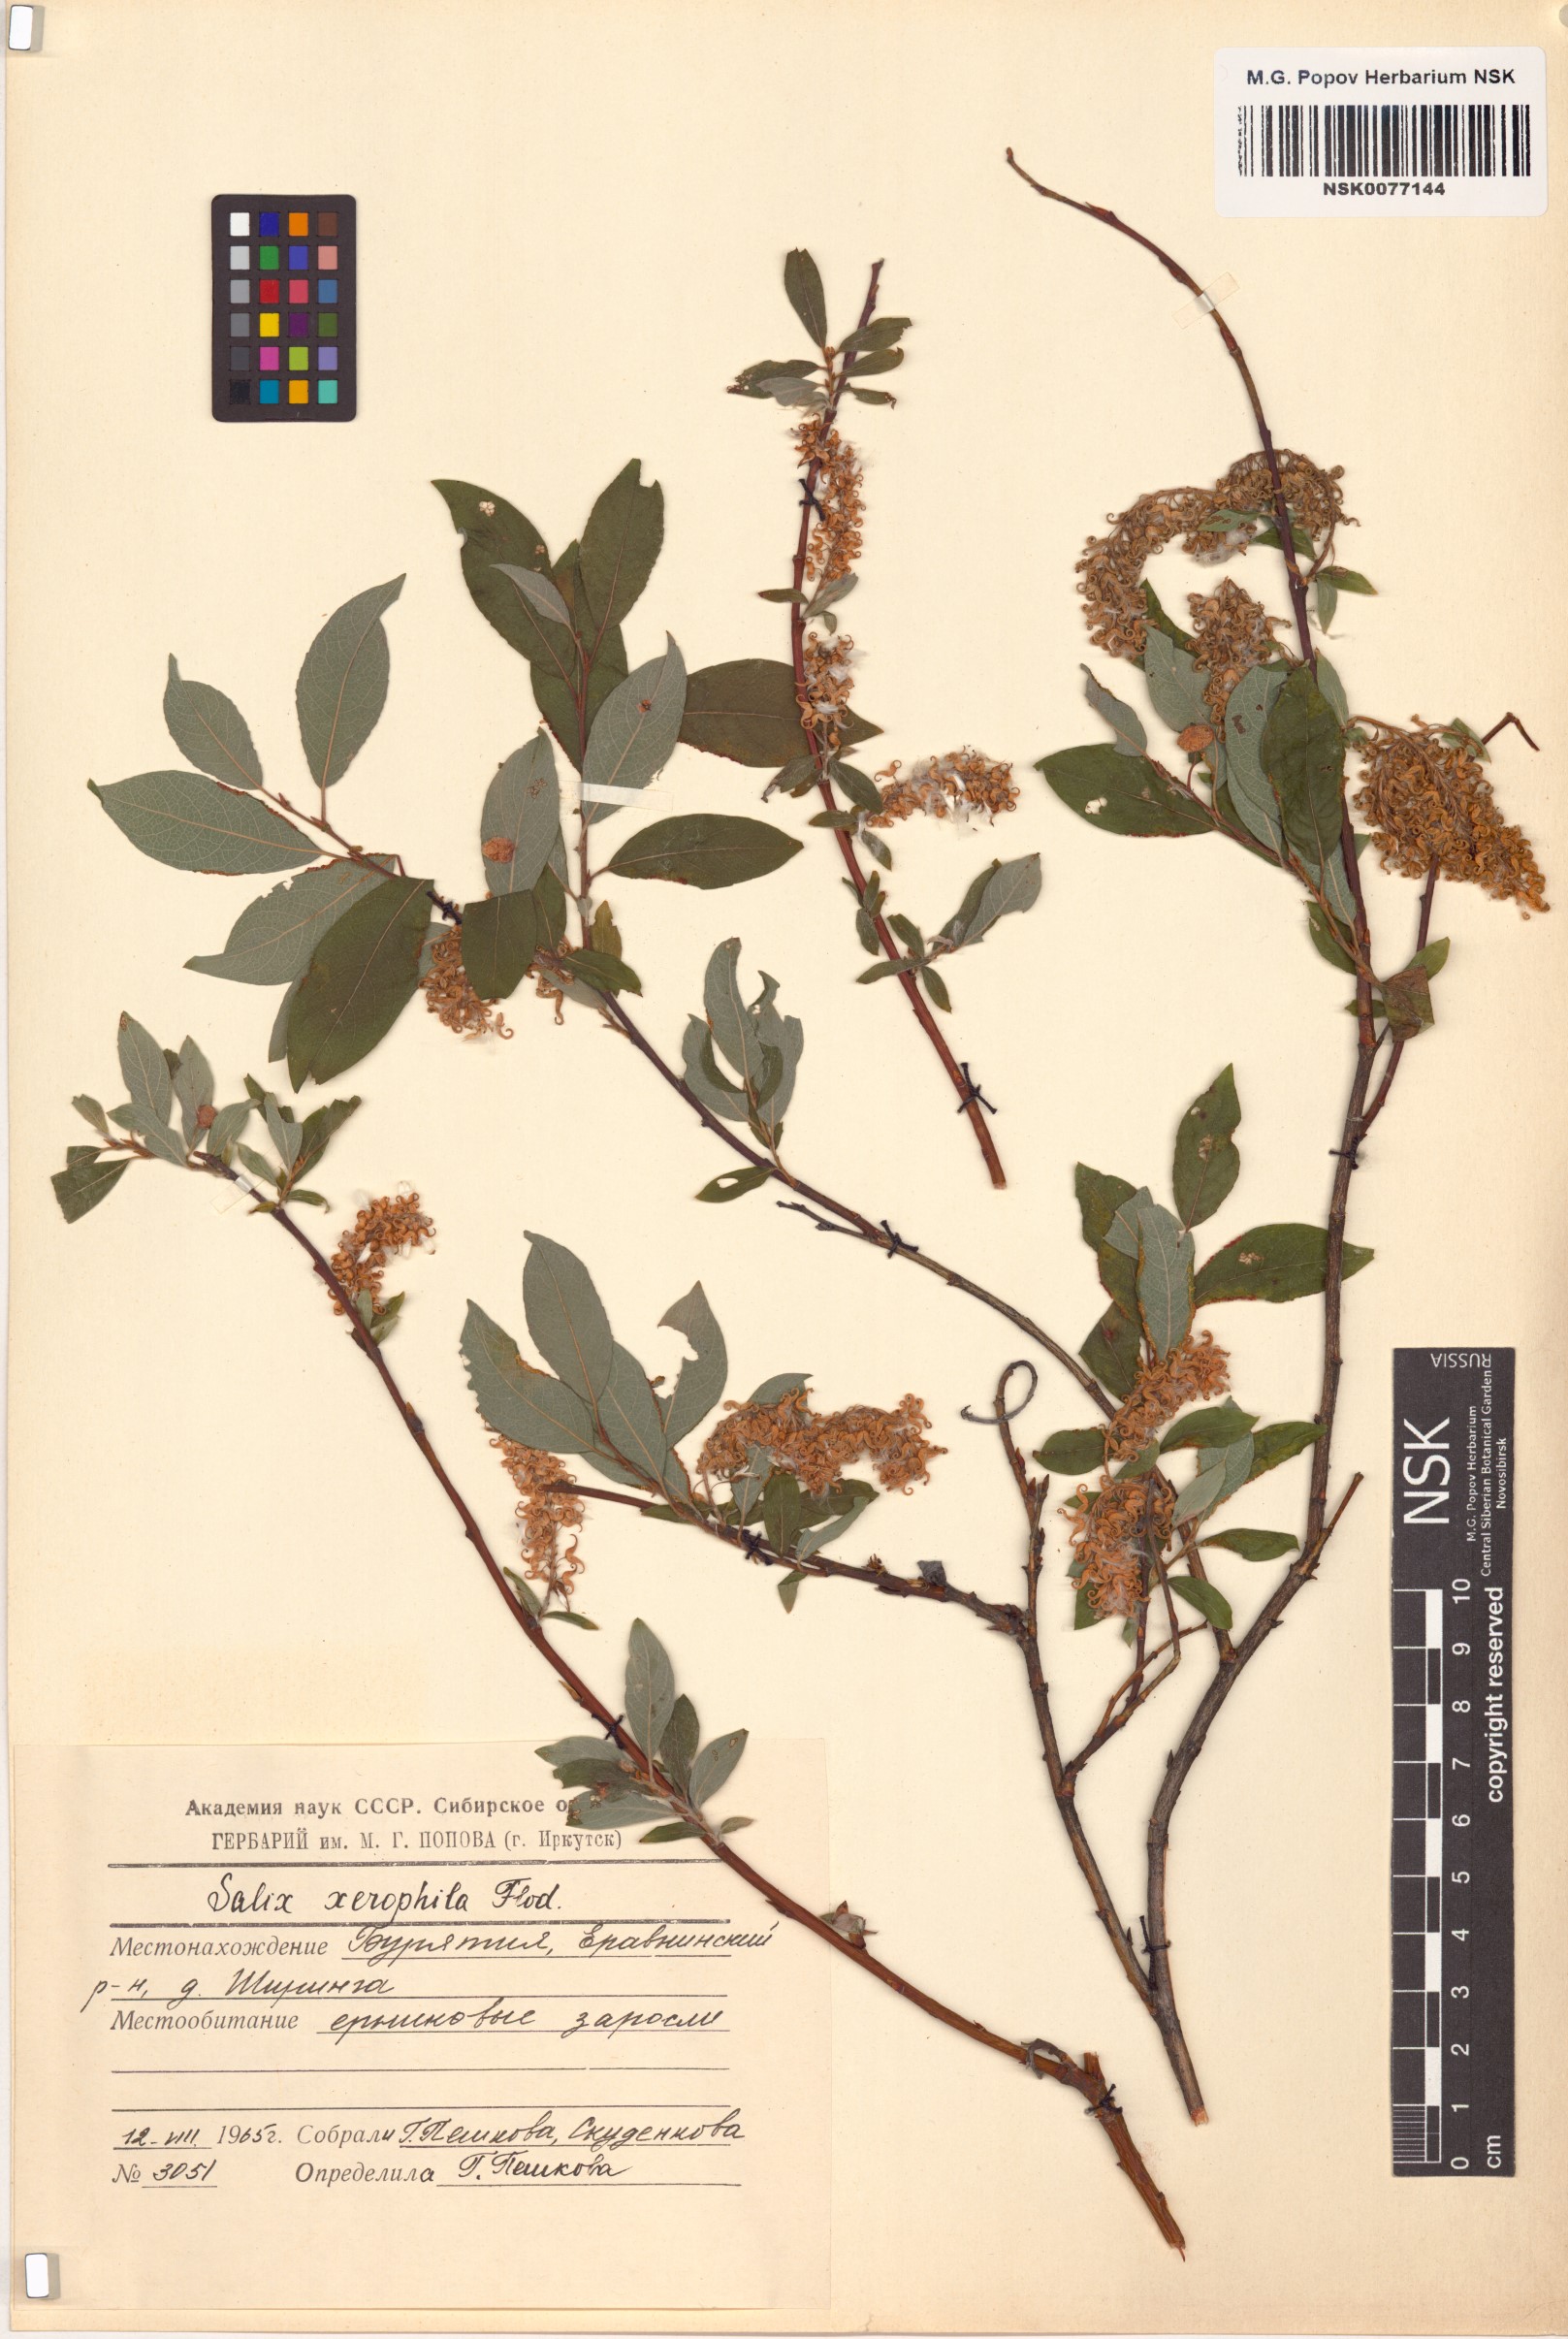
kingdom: Plantae
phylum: Tracheophyta
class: Magnoliopsida
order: Malpighiales
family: Salicaceae
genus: Salix
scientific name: Salix bebbiana
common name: Bebb's willow
